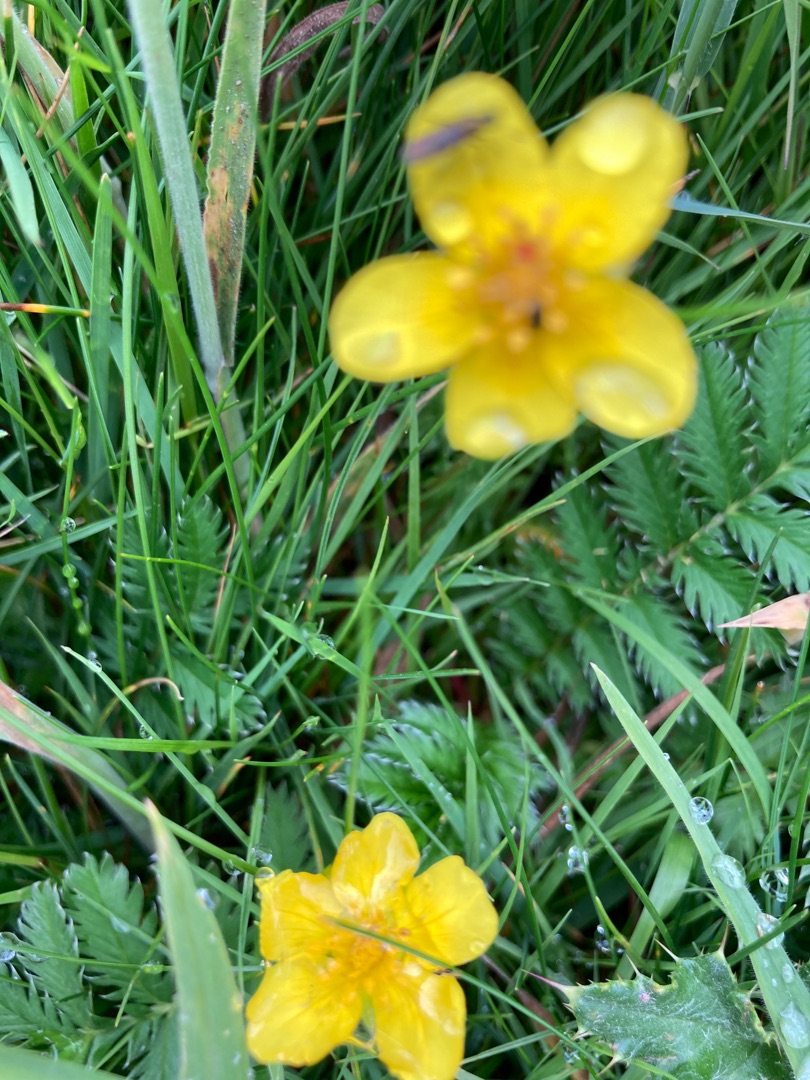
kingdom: Plantae
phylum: Tracheophyta
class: Magnoliopsida
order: Rosales
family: Rosaceae
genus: Argentina
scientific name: Argentina anserina
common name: Gåsepotentil
